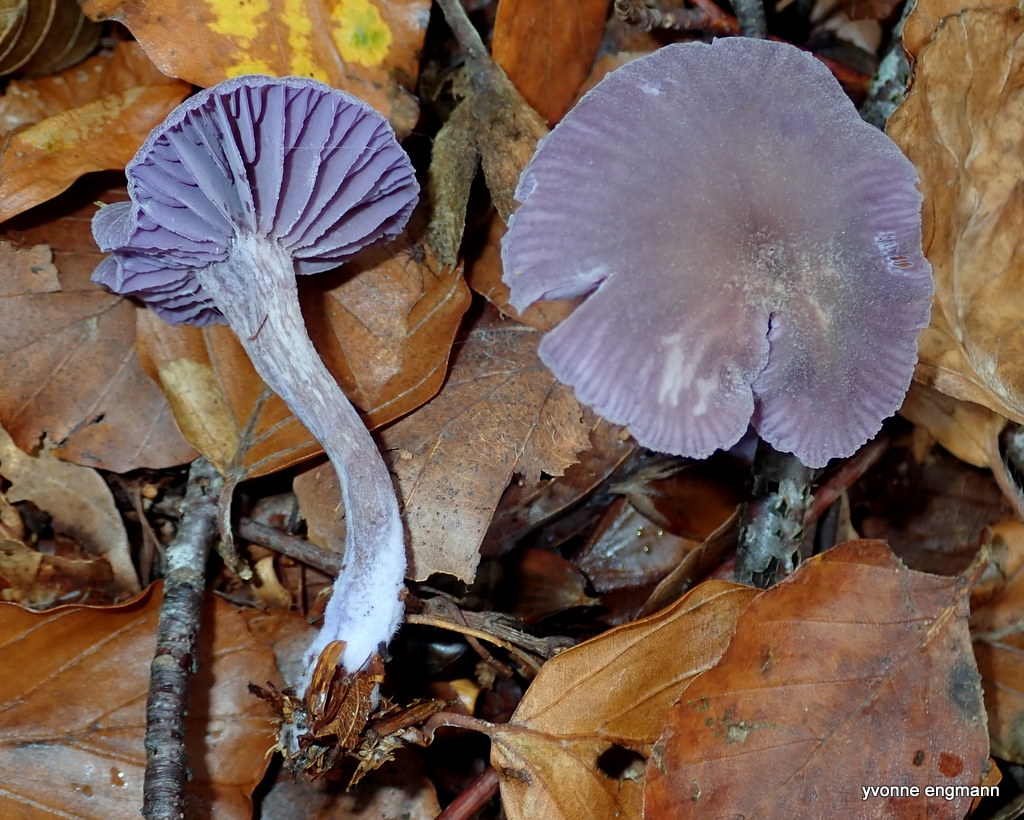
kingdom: Fungi
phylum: Basidiomycota
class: Agaricomycetes
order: Agaricales
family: Hydnangiaceae
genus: Laccaria
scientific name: Laccaria amethystina
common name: violet ametysthat
